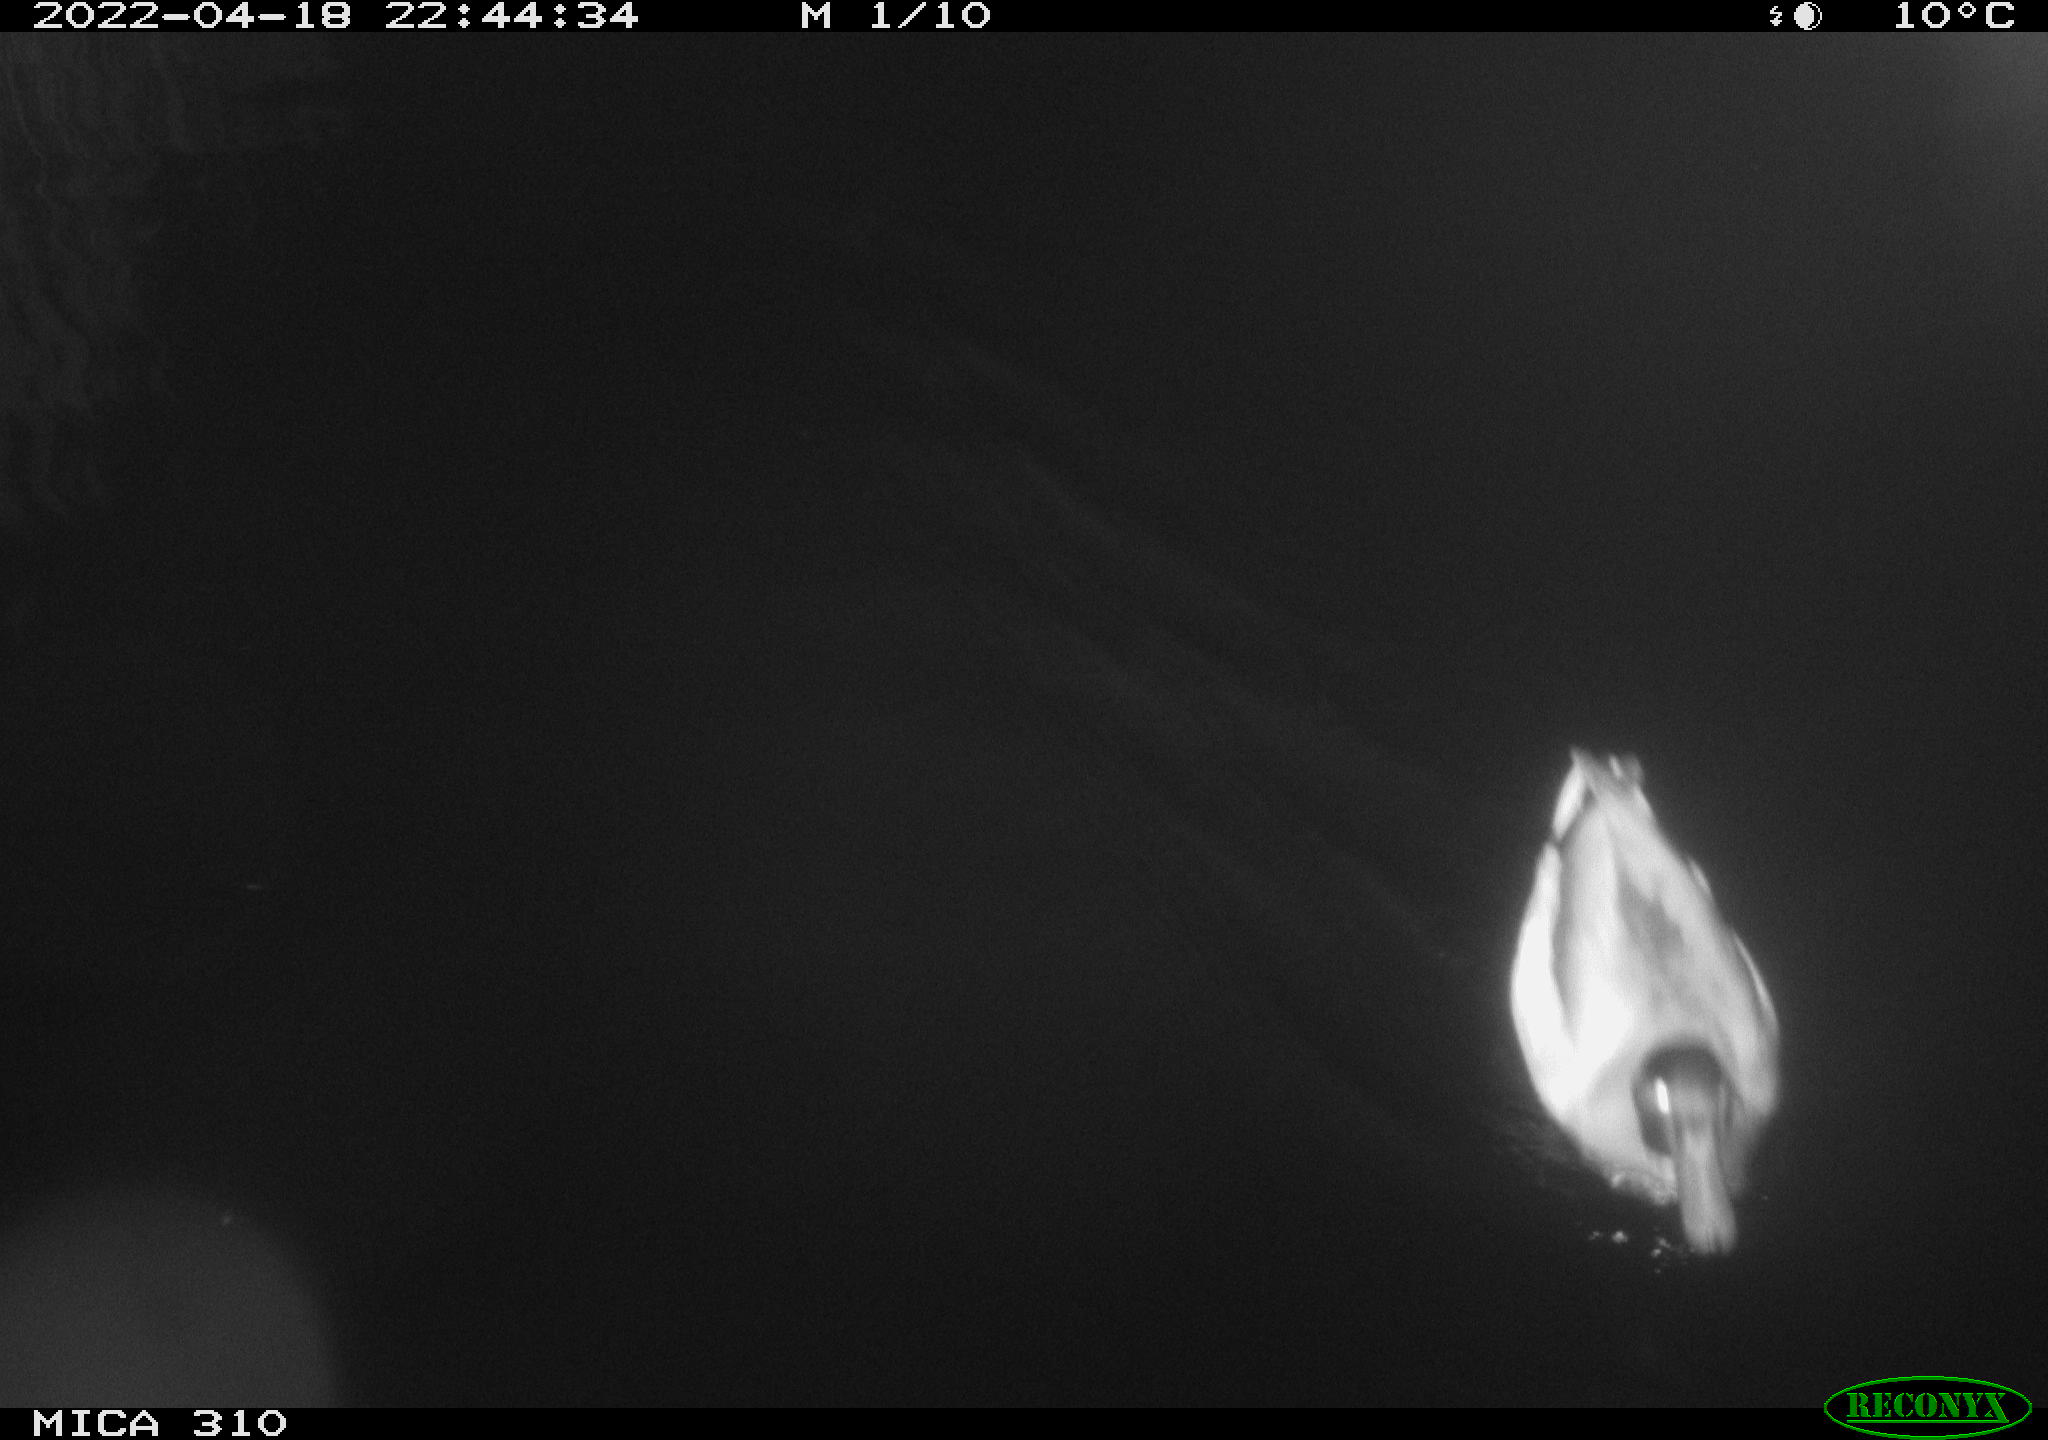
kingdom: Animalia
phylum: Chordata
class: Aves
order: Anseriformes
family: Anatidae
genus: Anas
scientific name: Anas platyrhynchos
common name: Mallard
